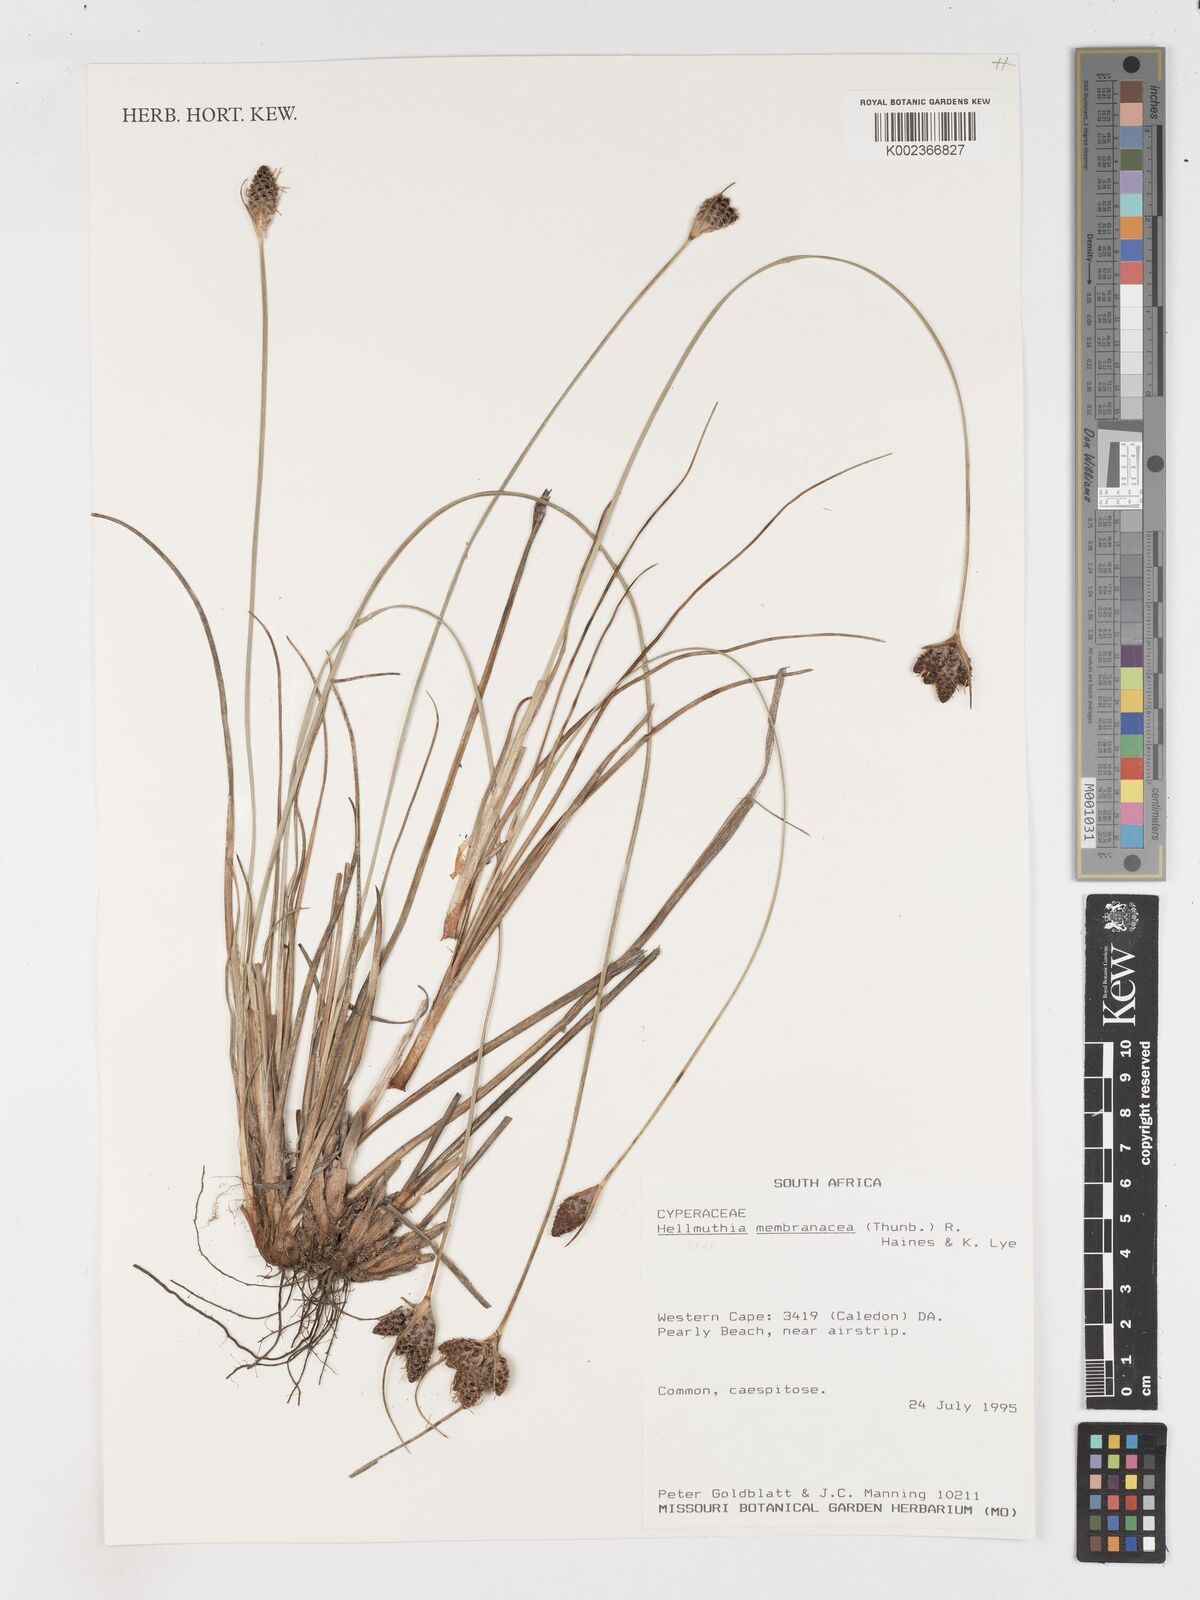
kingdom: Plantae
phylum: Tracheophyta
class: Liliopsida
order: Poales
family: Cyperaceae
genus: Hellmuthia
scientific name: Hellmuthia membranacea
